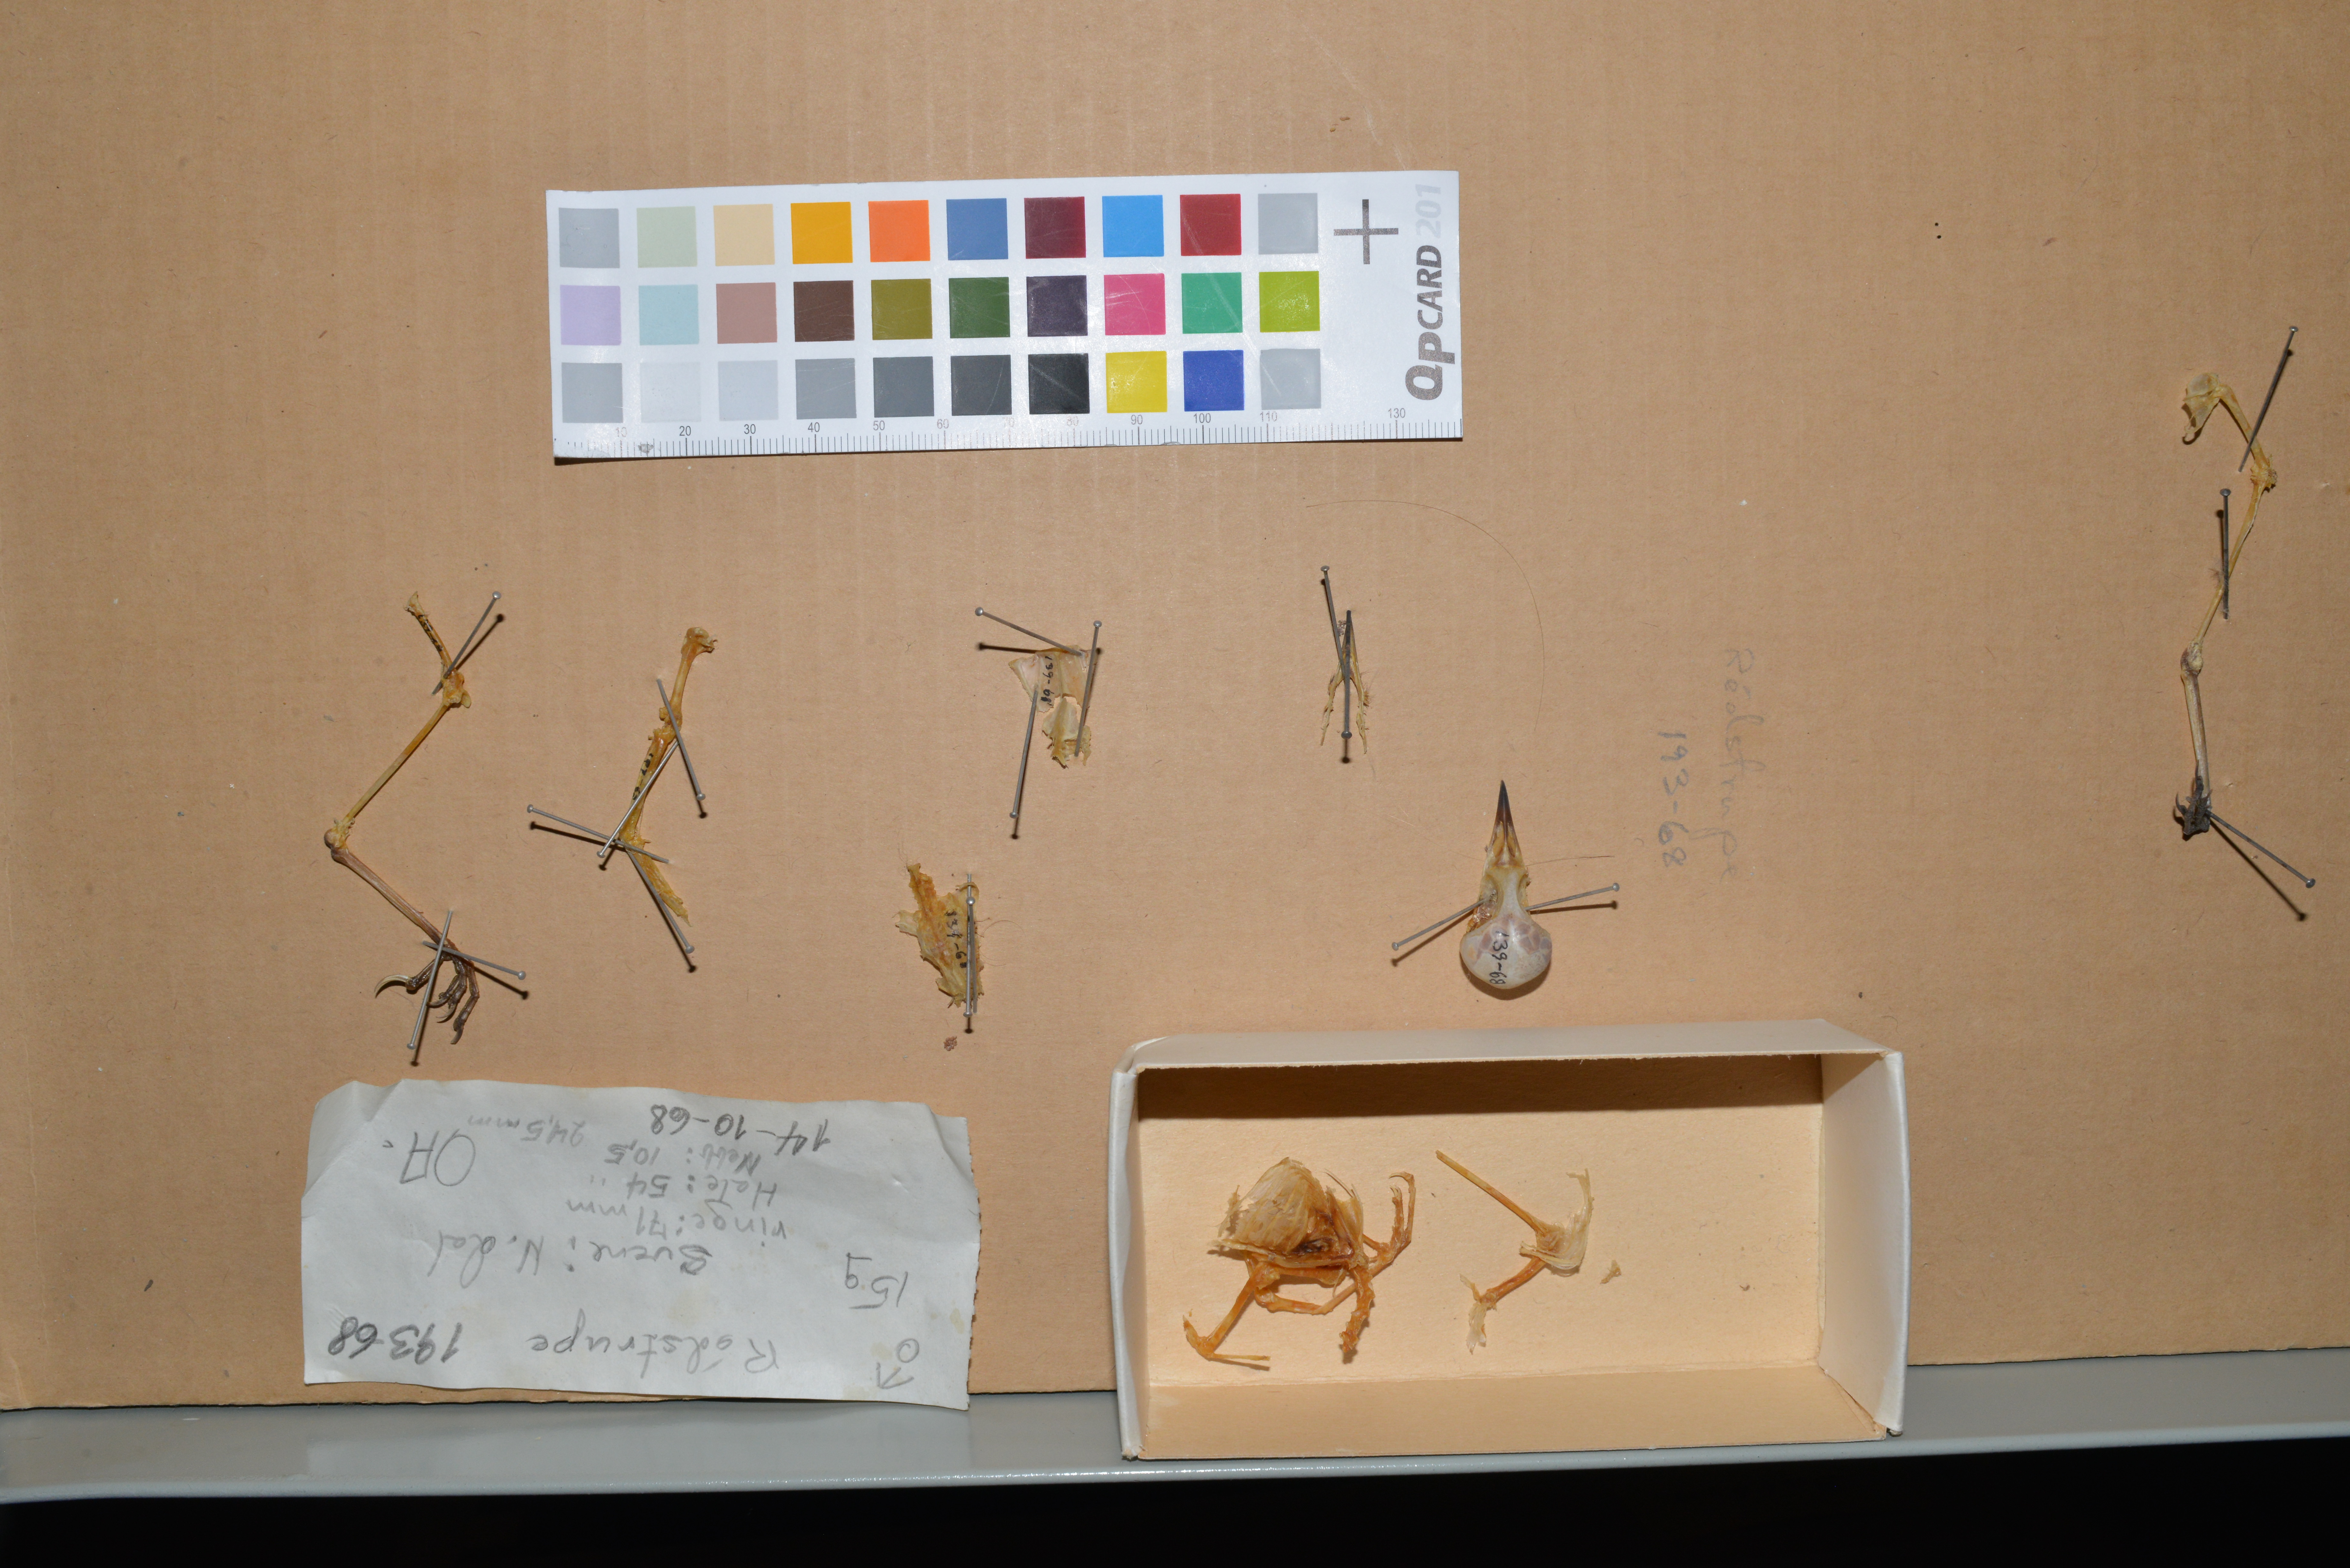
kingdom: Animalia
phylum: Chordata
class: Aves
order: Passeriformes
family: Muscicapidae
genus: Erithacus
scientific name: Erithacus rubecula
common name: European robin
